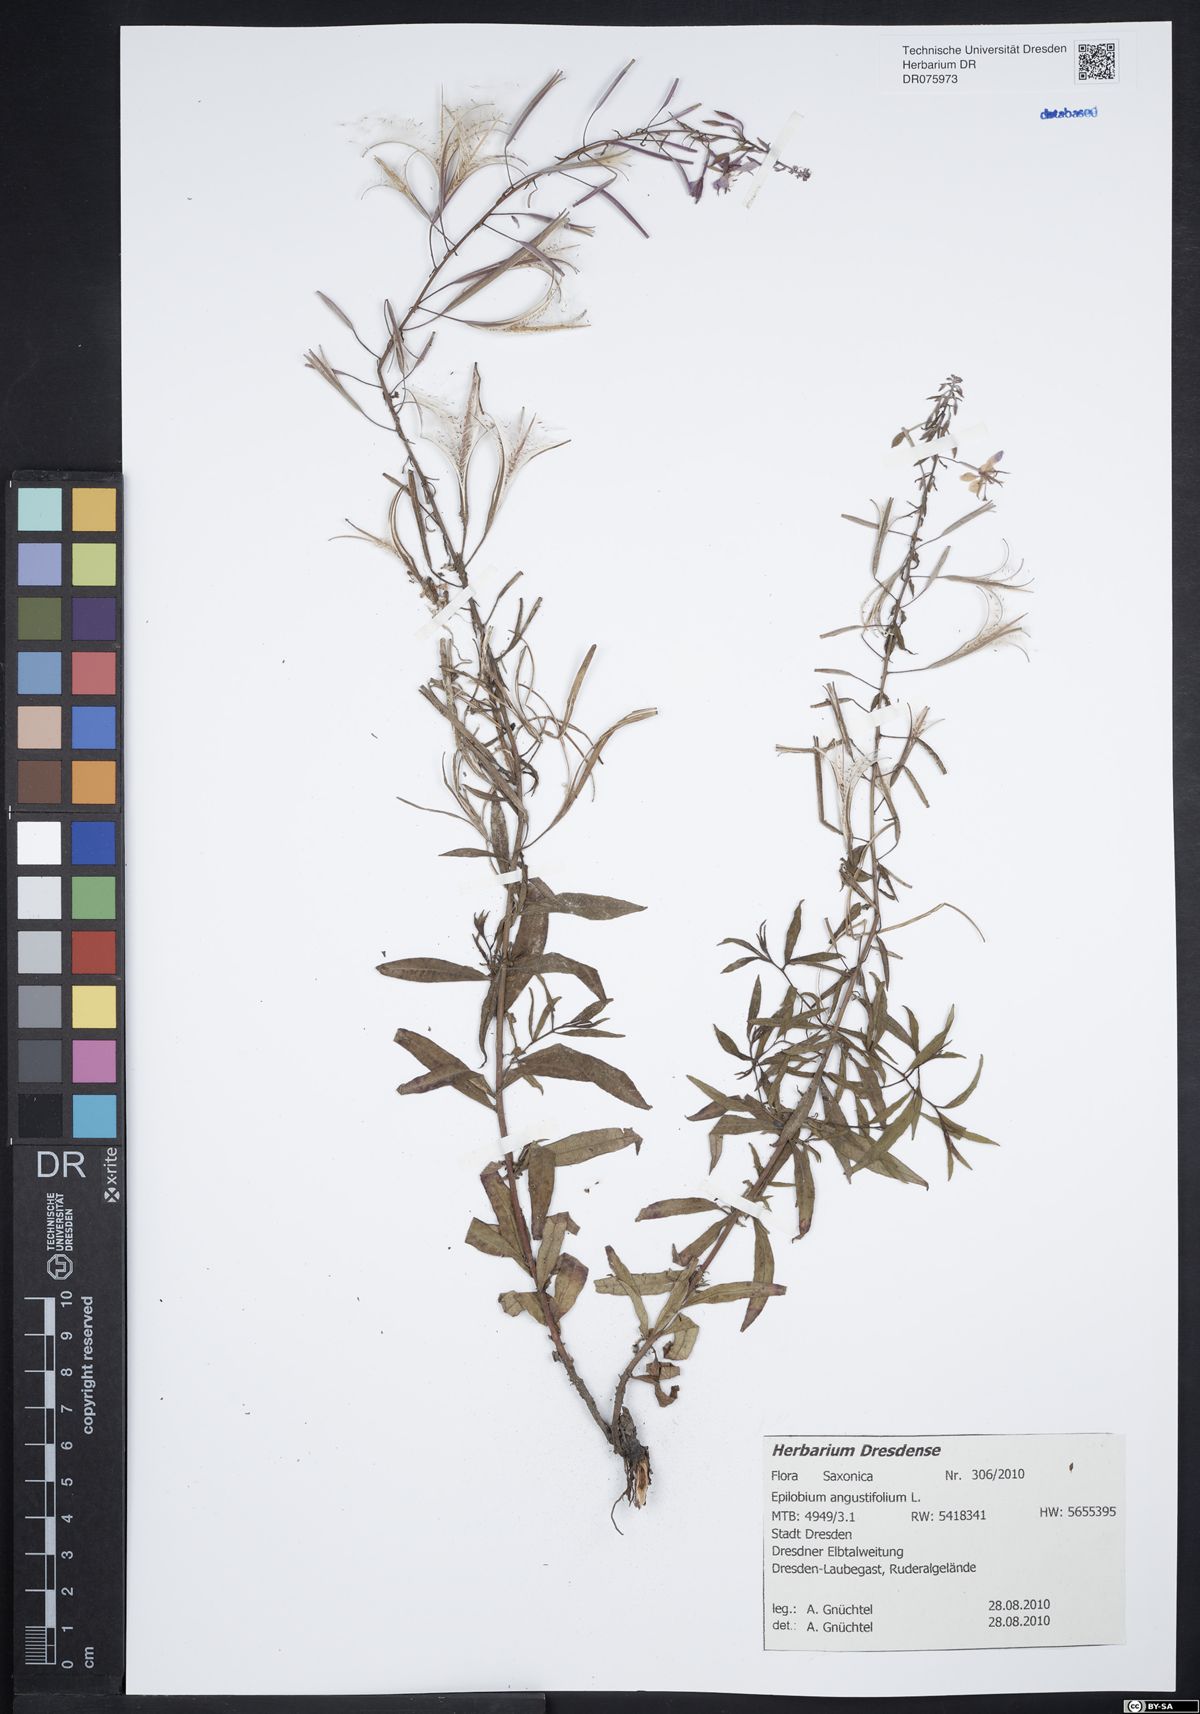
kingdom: Plantae
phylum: Tracheophyta
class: Magnoliopsida
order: Myrtales
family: Onagraceae
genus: Chamaenerion
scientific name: Chamaenerion angustifolium
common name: Fireweed
